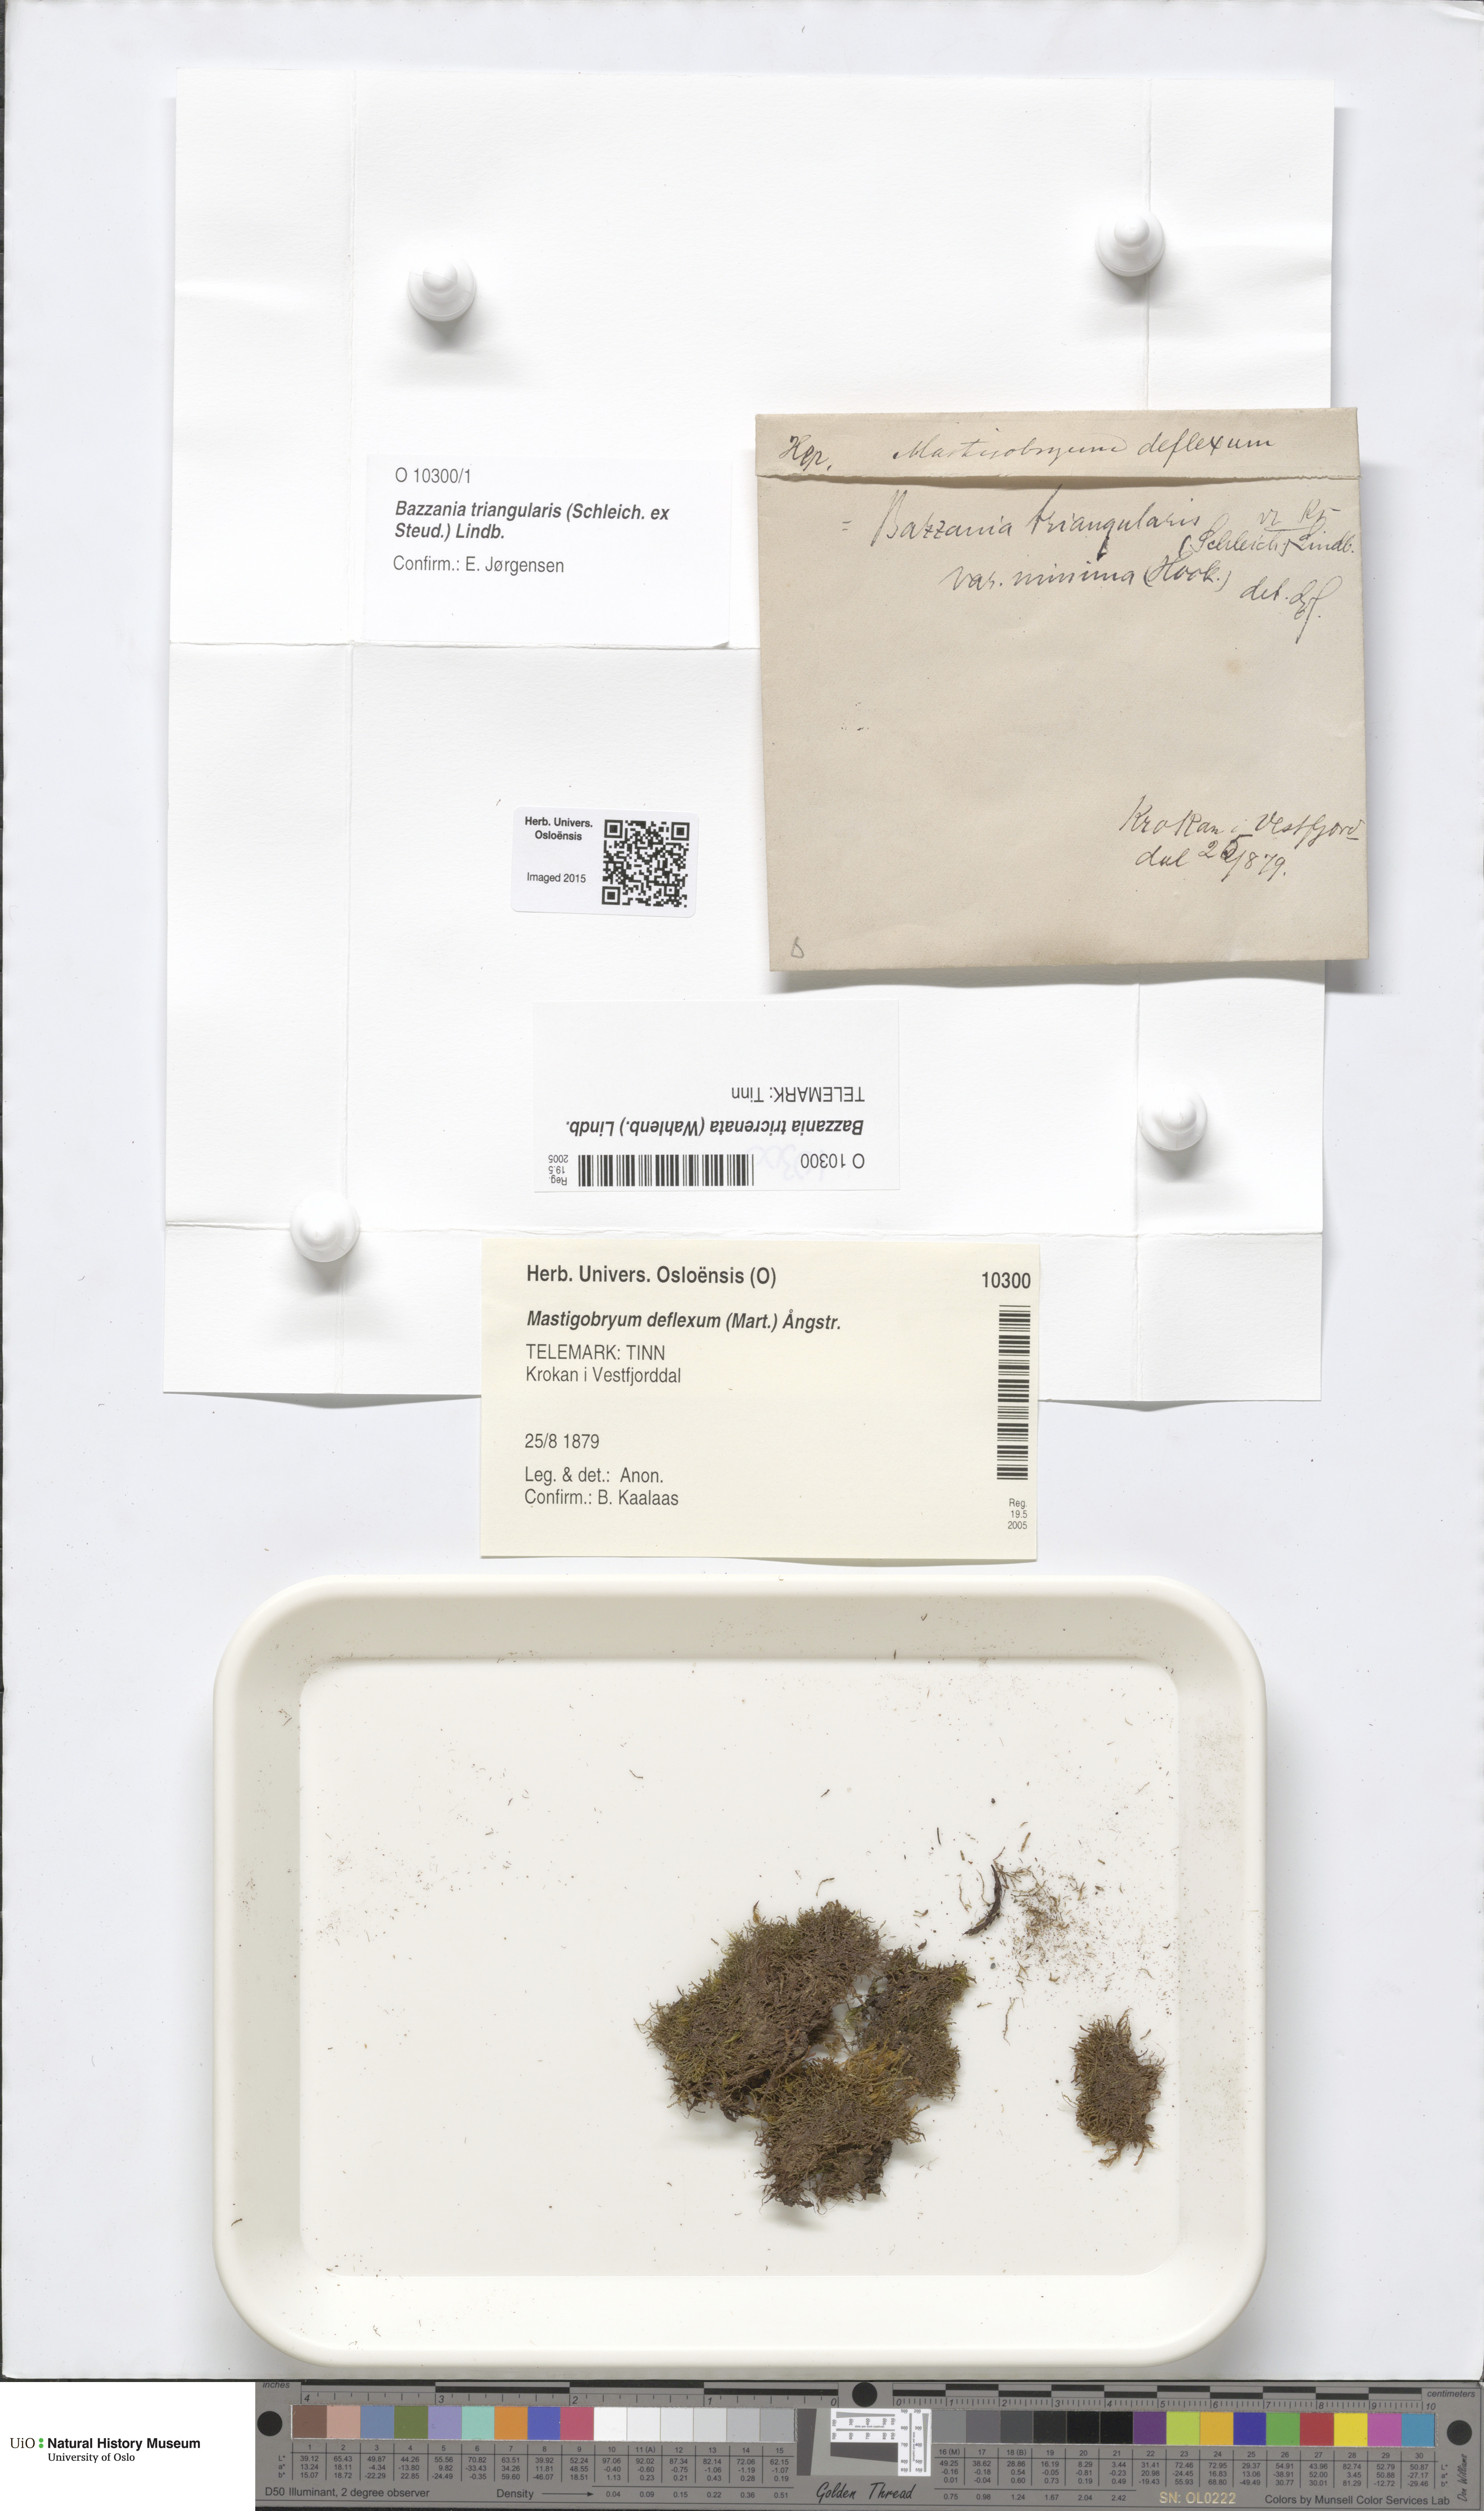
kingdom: Plantae
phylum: Marchantiophyta
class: Jungermanniopsida
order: Jungermanniales
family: Lepidoziaceae
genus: Bazzania
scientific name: Bazzania tricrenata
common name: Lesser whipwort
